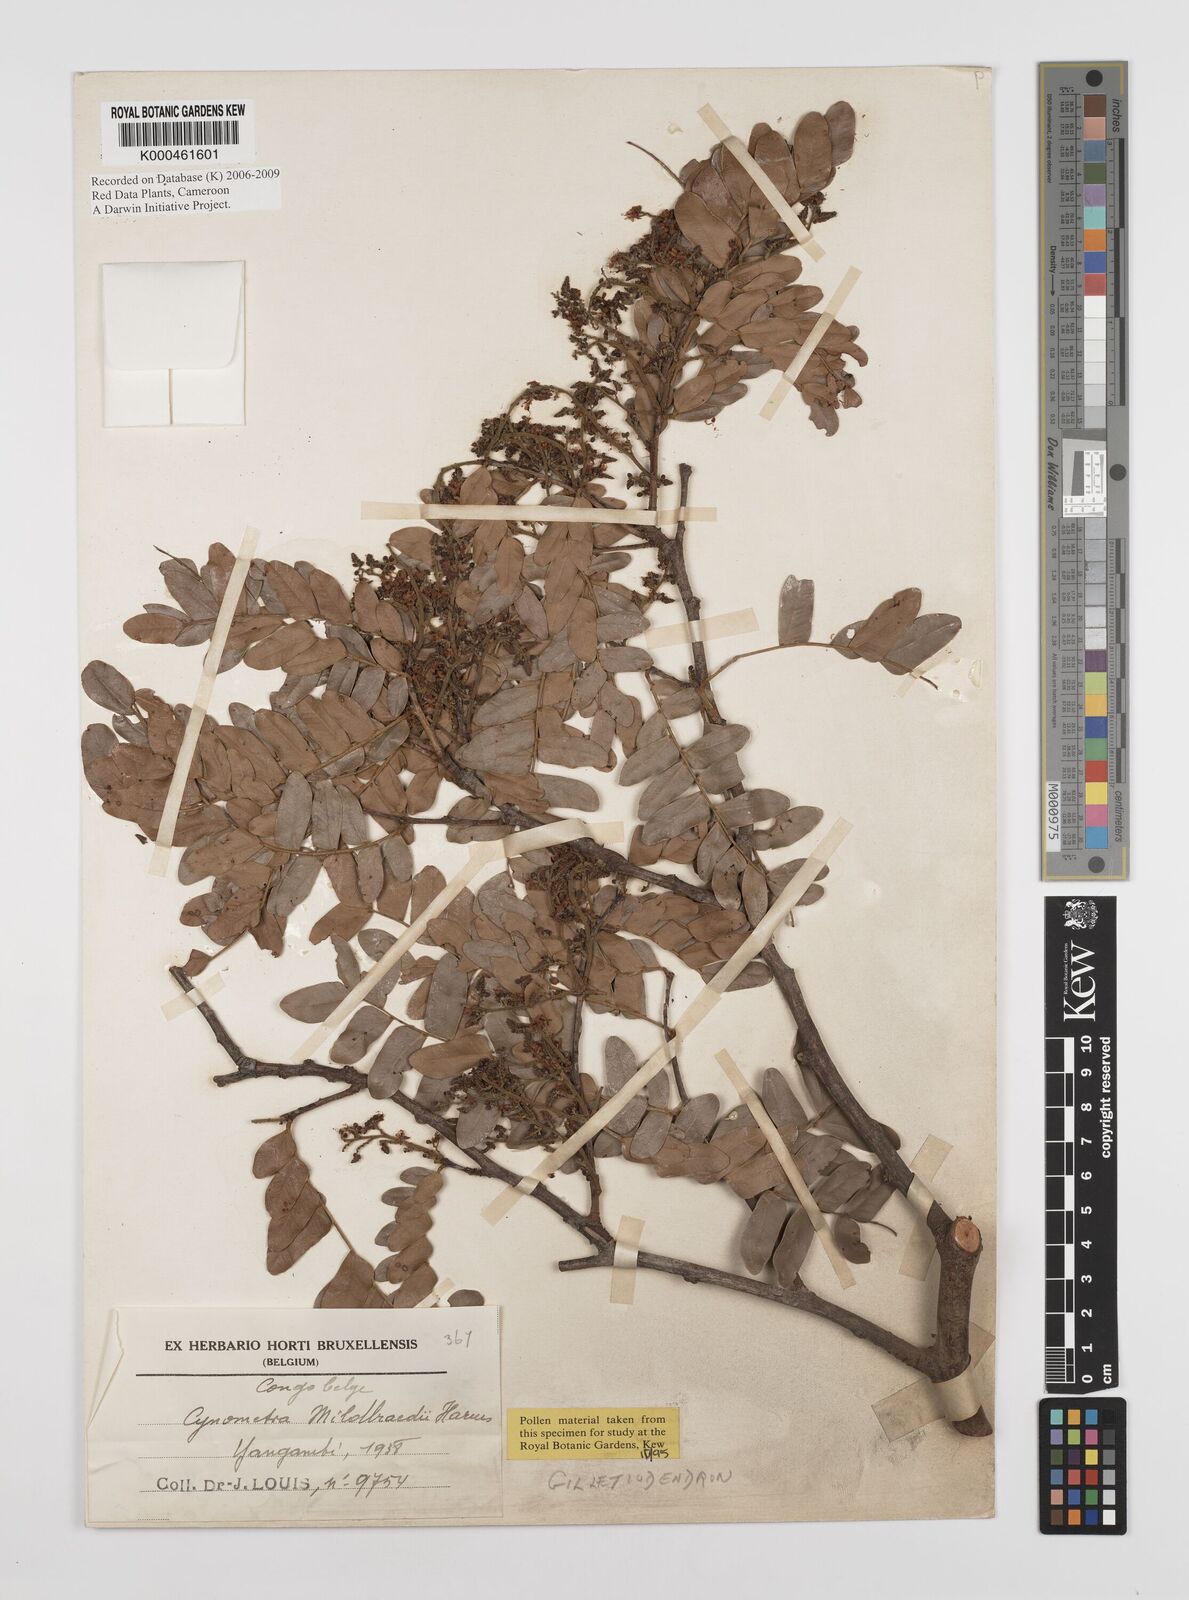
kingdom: Plantae
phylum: Tracheophyta
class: Magnoliopsida
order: Fabales
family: Fabaceae
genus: Gilletiodendron
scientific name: Gilletiodendron mildbraedii
